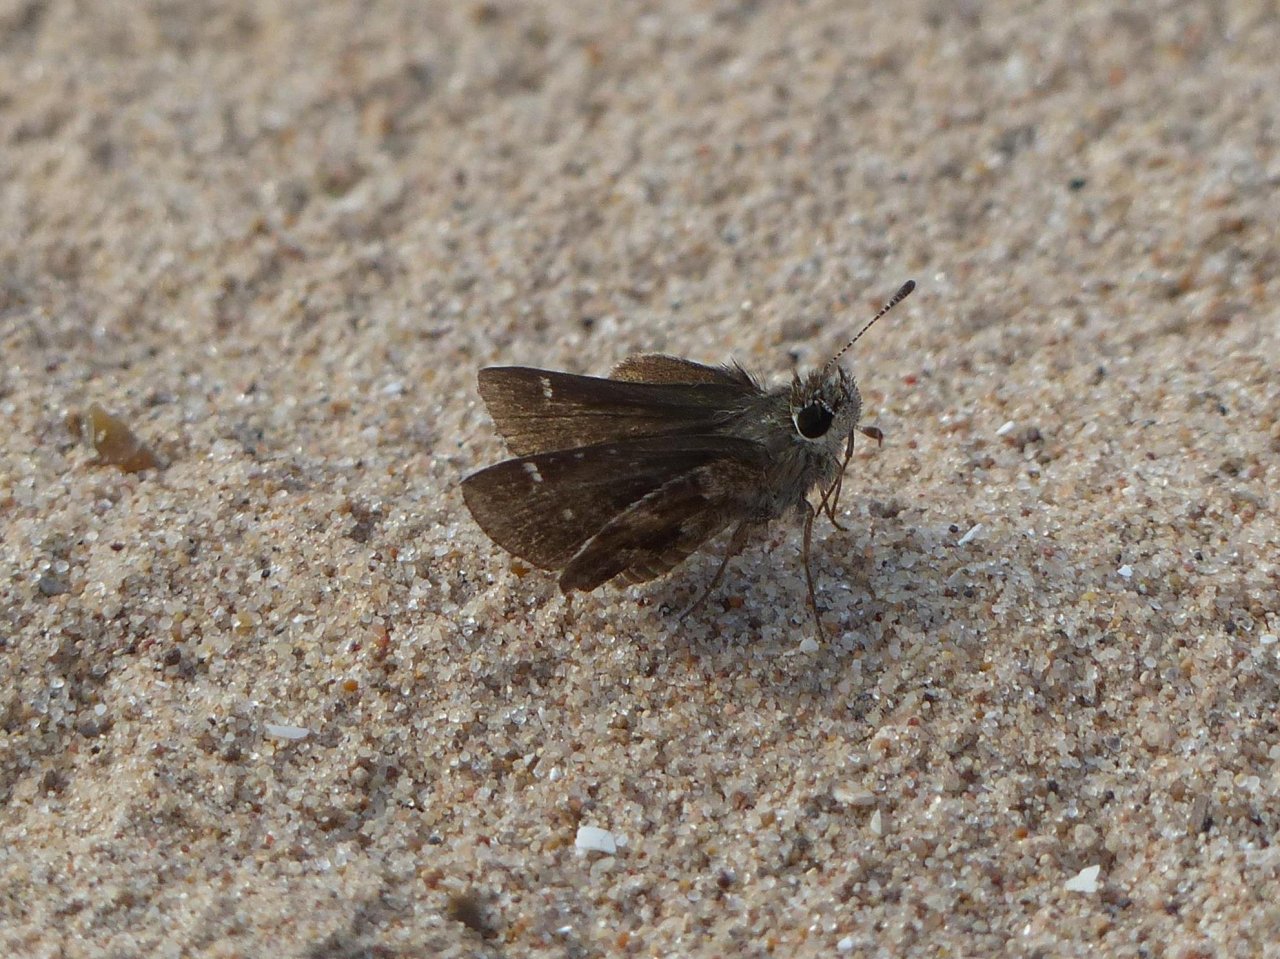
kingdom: Animalia
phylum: Arthropoda
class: Insecta
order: Lepidoptera
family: Hesperiidae
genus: Mastor
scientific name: Mastor nysa
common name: Nysa Roadside-Skipper
